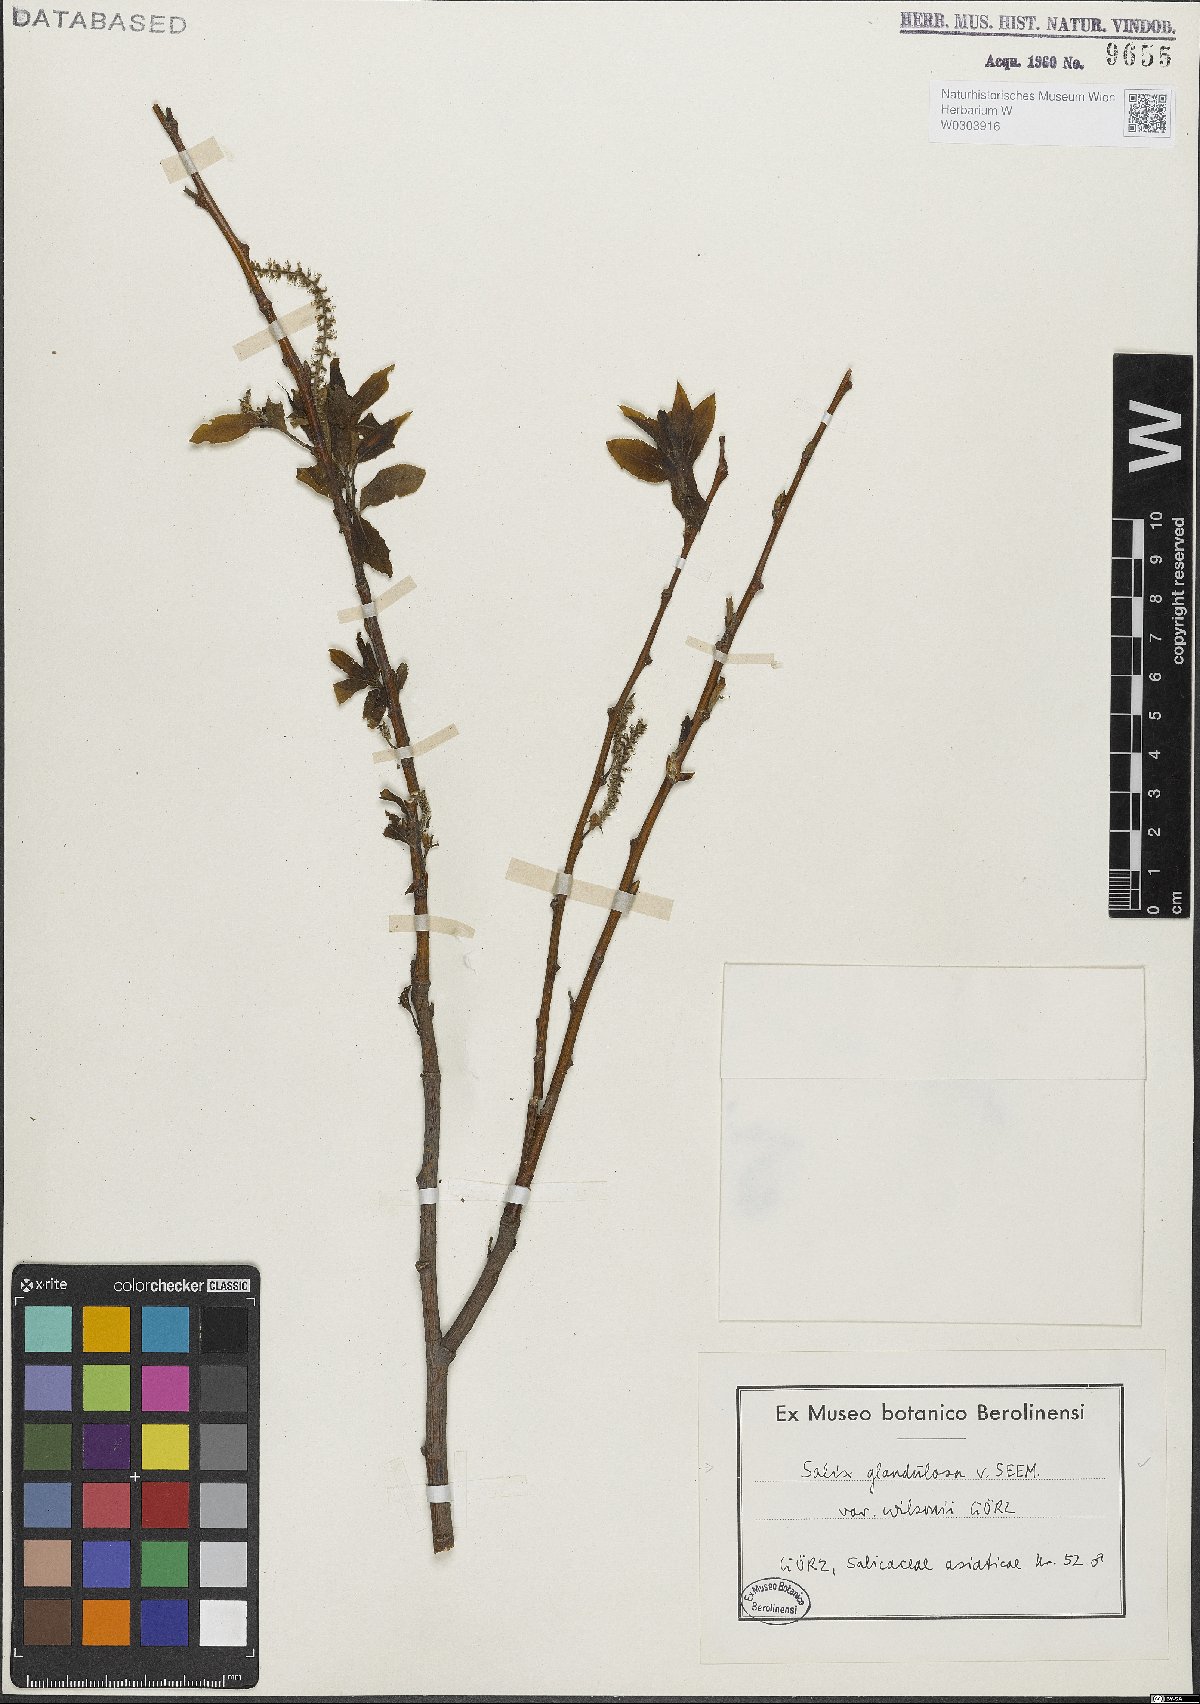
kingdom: Plantae
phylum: Tracheophyta
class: Magnoliopsida
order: Malpighiales
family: Salicaceae
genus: Salix
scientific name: Salix chaenomeloides
